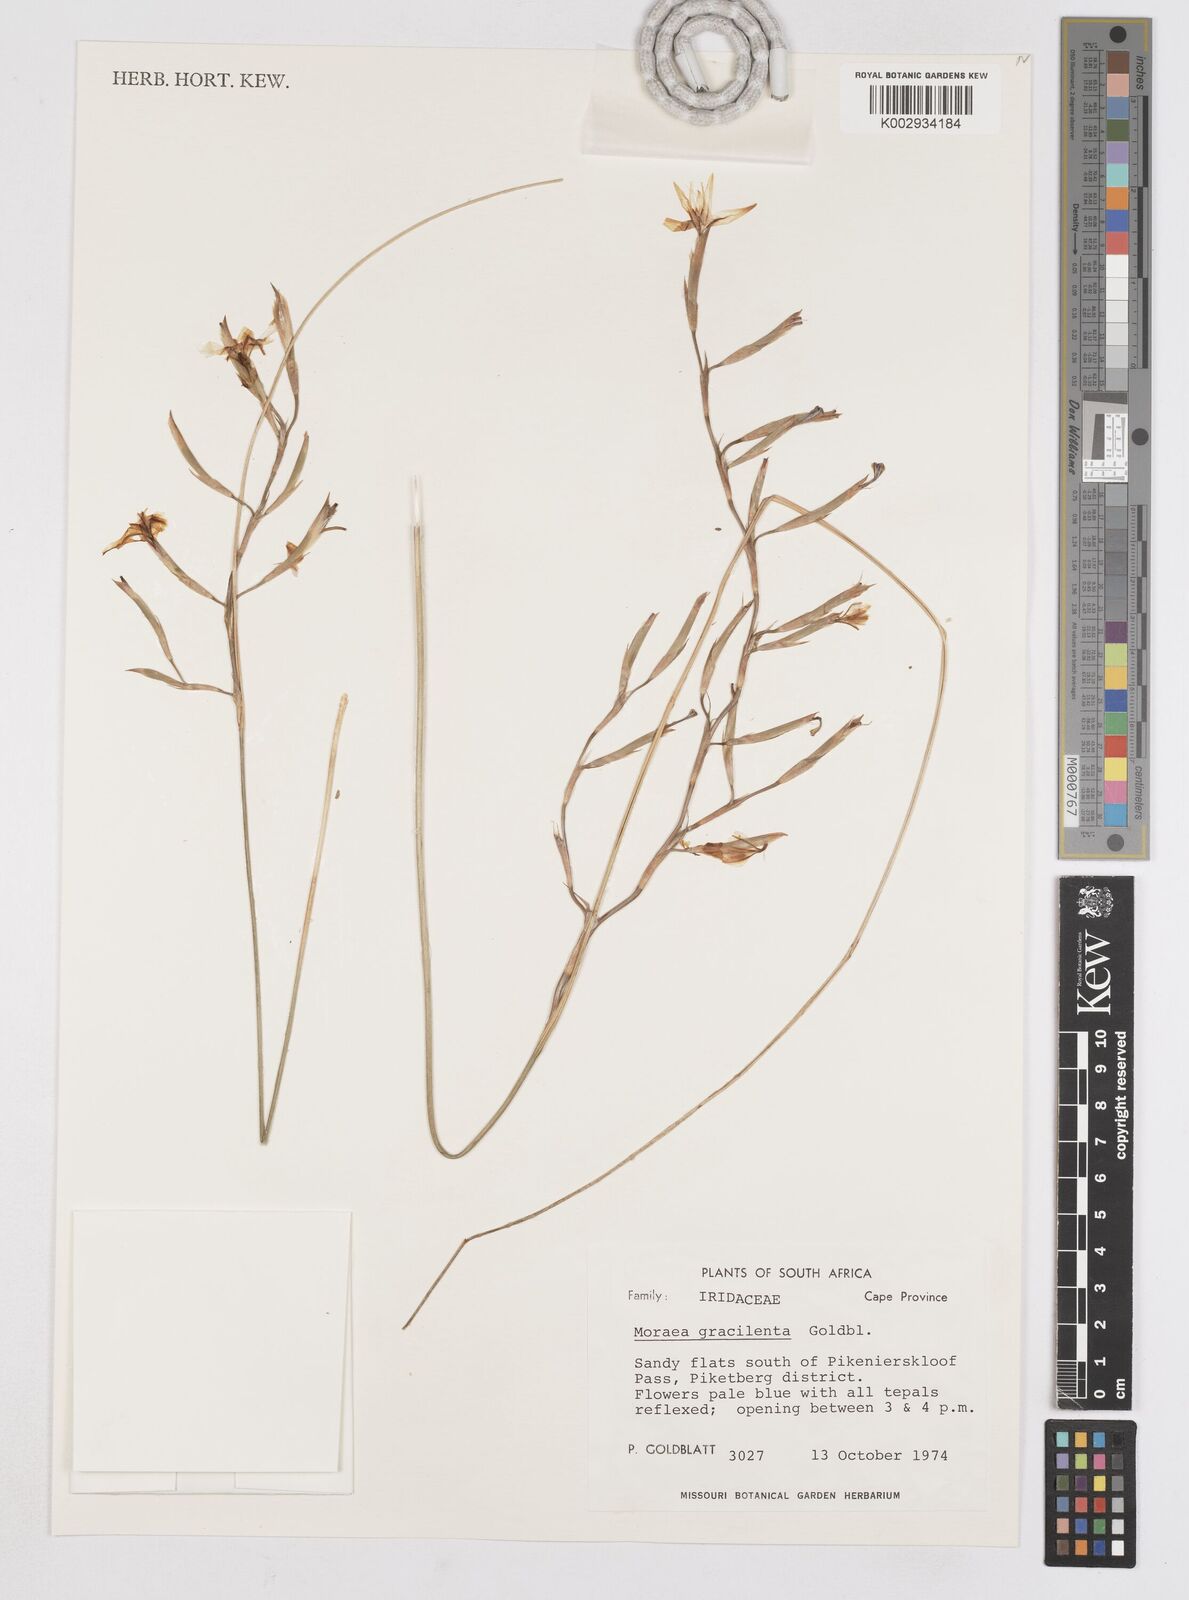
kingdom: Plantae
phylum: Tracheophyta
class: Liliopsida
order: Asparagales
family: Iridaceae
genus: Moraea
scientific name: Moraea gracilenta
